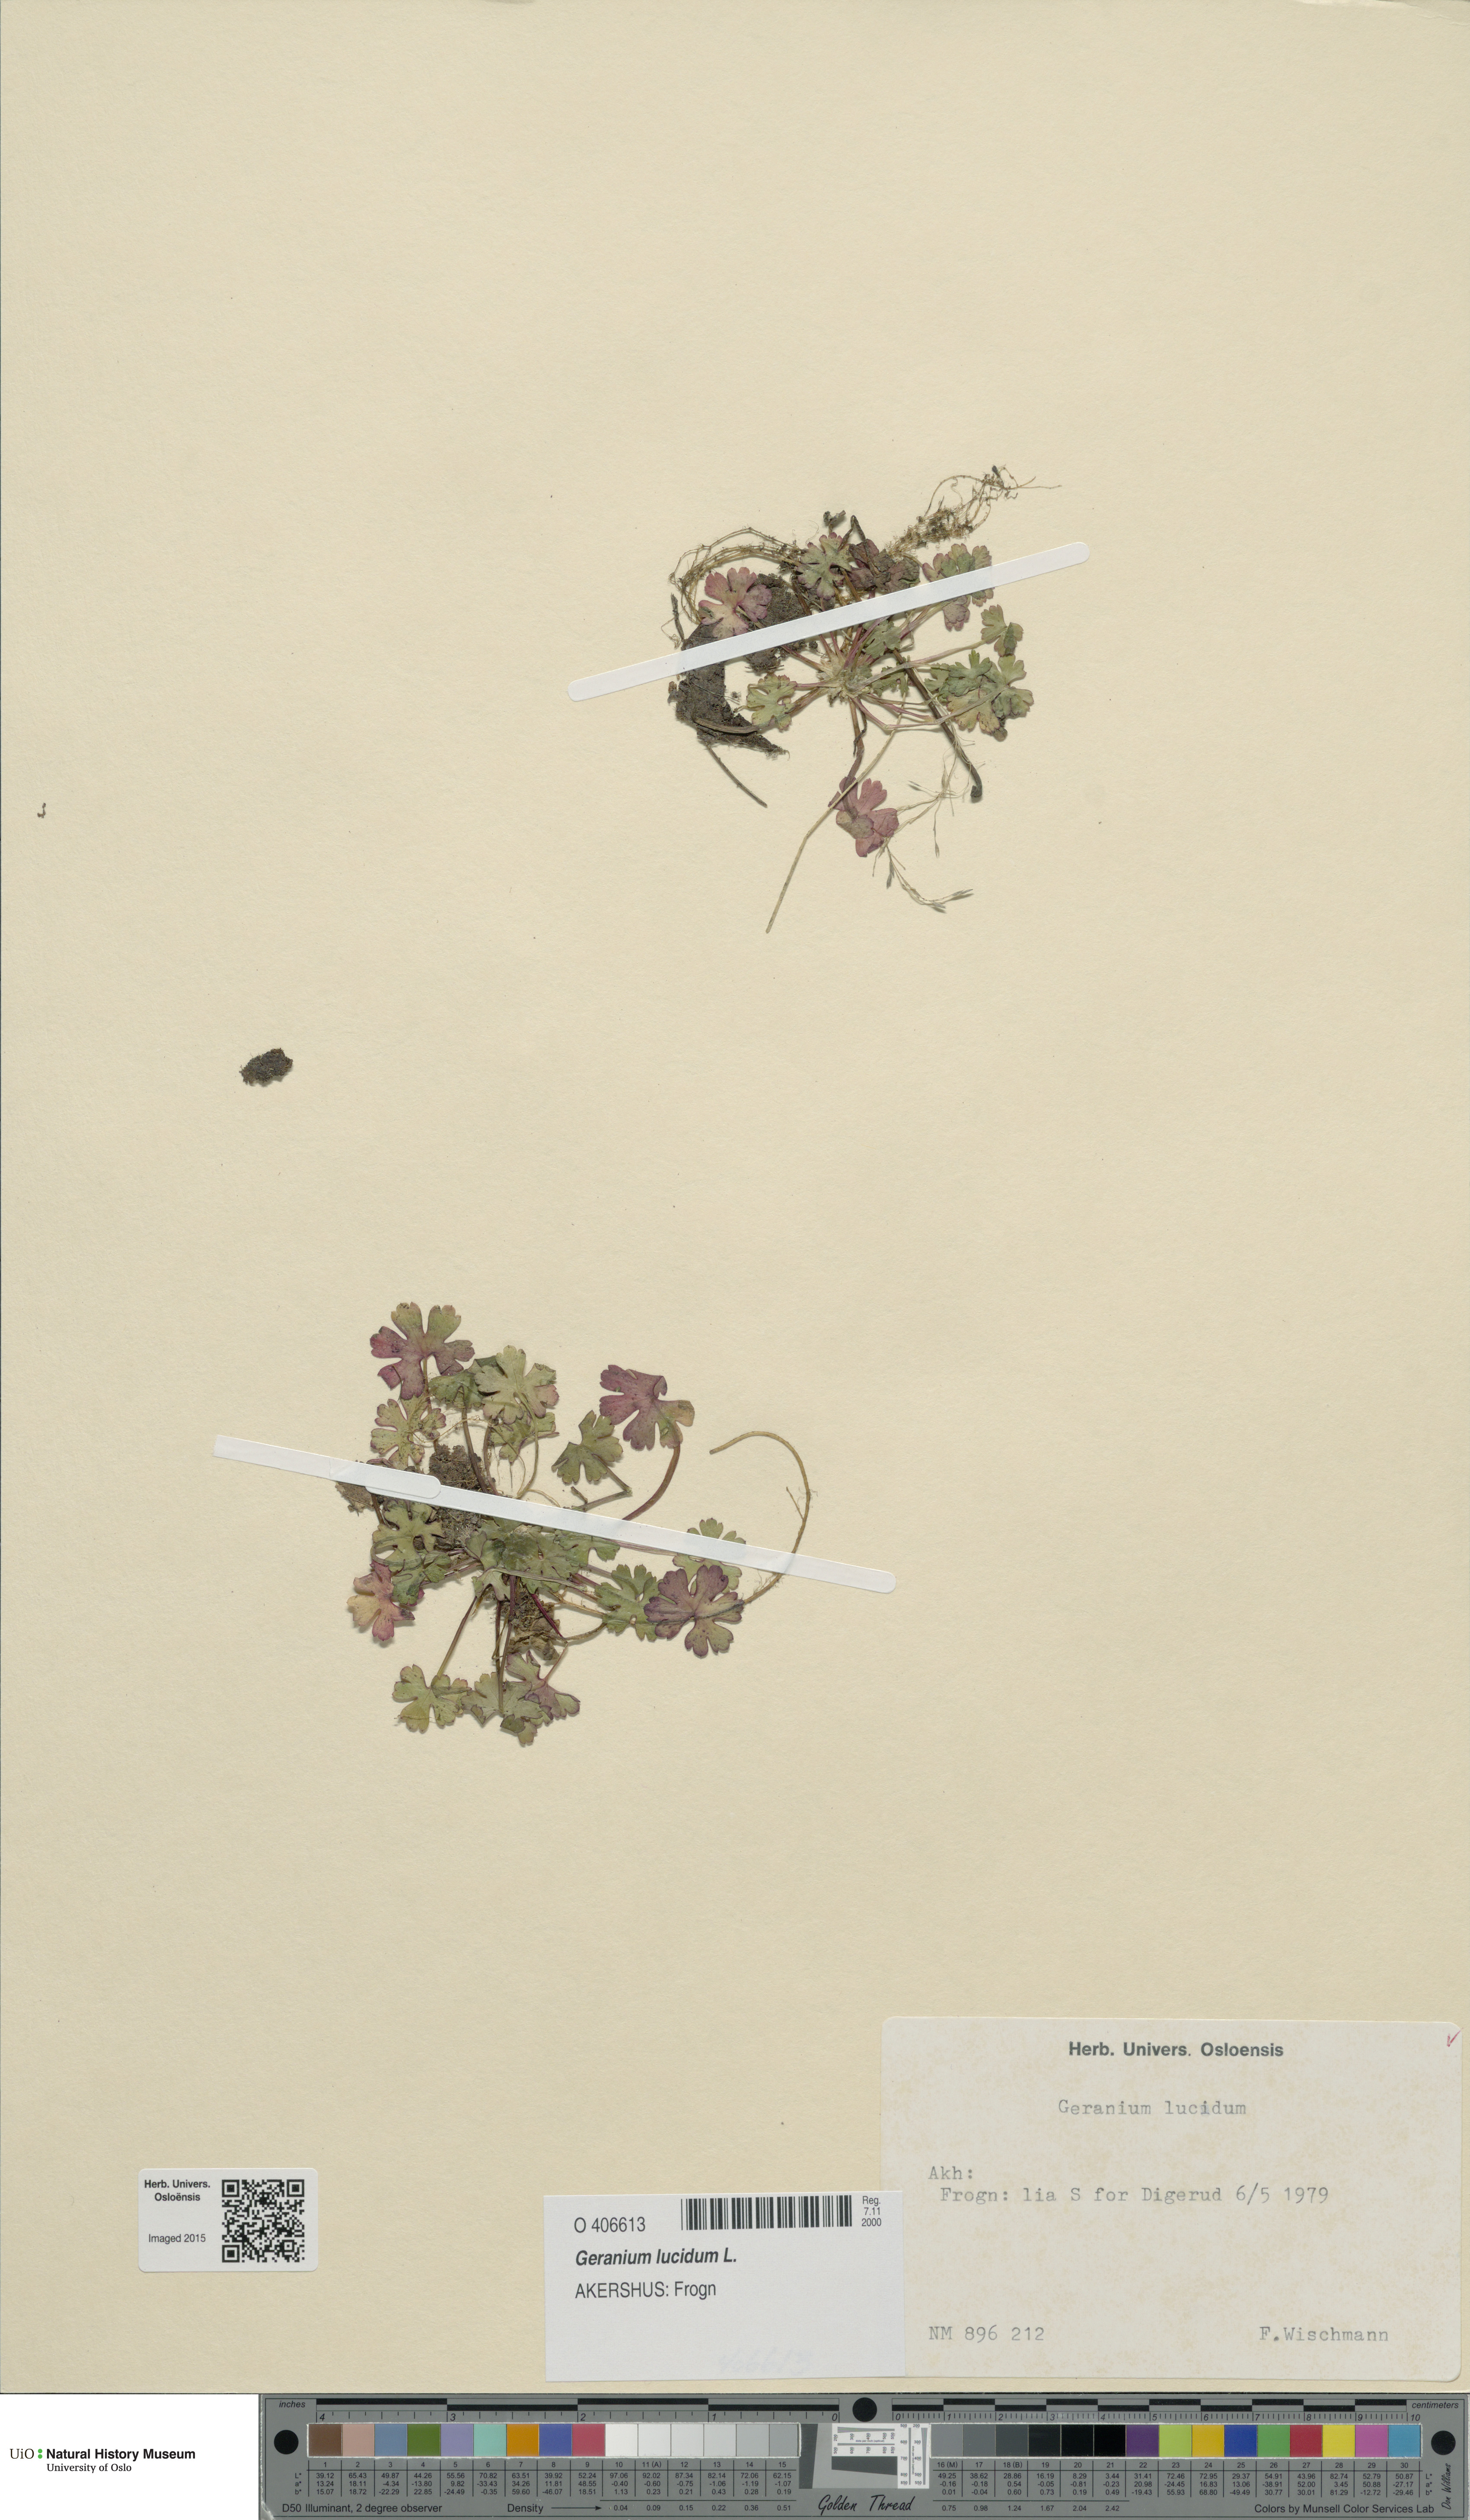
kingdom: Plantae
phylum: Tracheophyta
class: Magnoliopsida
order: Geraniales
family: Geraniaceae
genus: Geranium
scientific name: Geranium lucidum
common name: Shining crane's-bill
